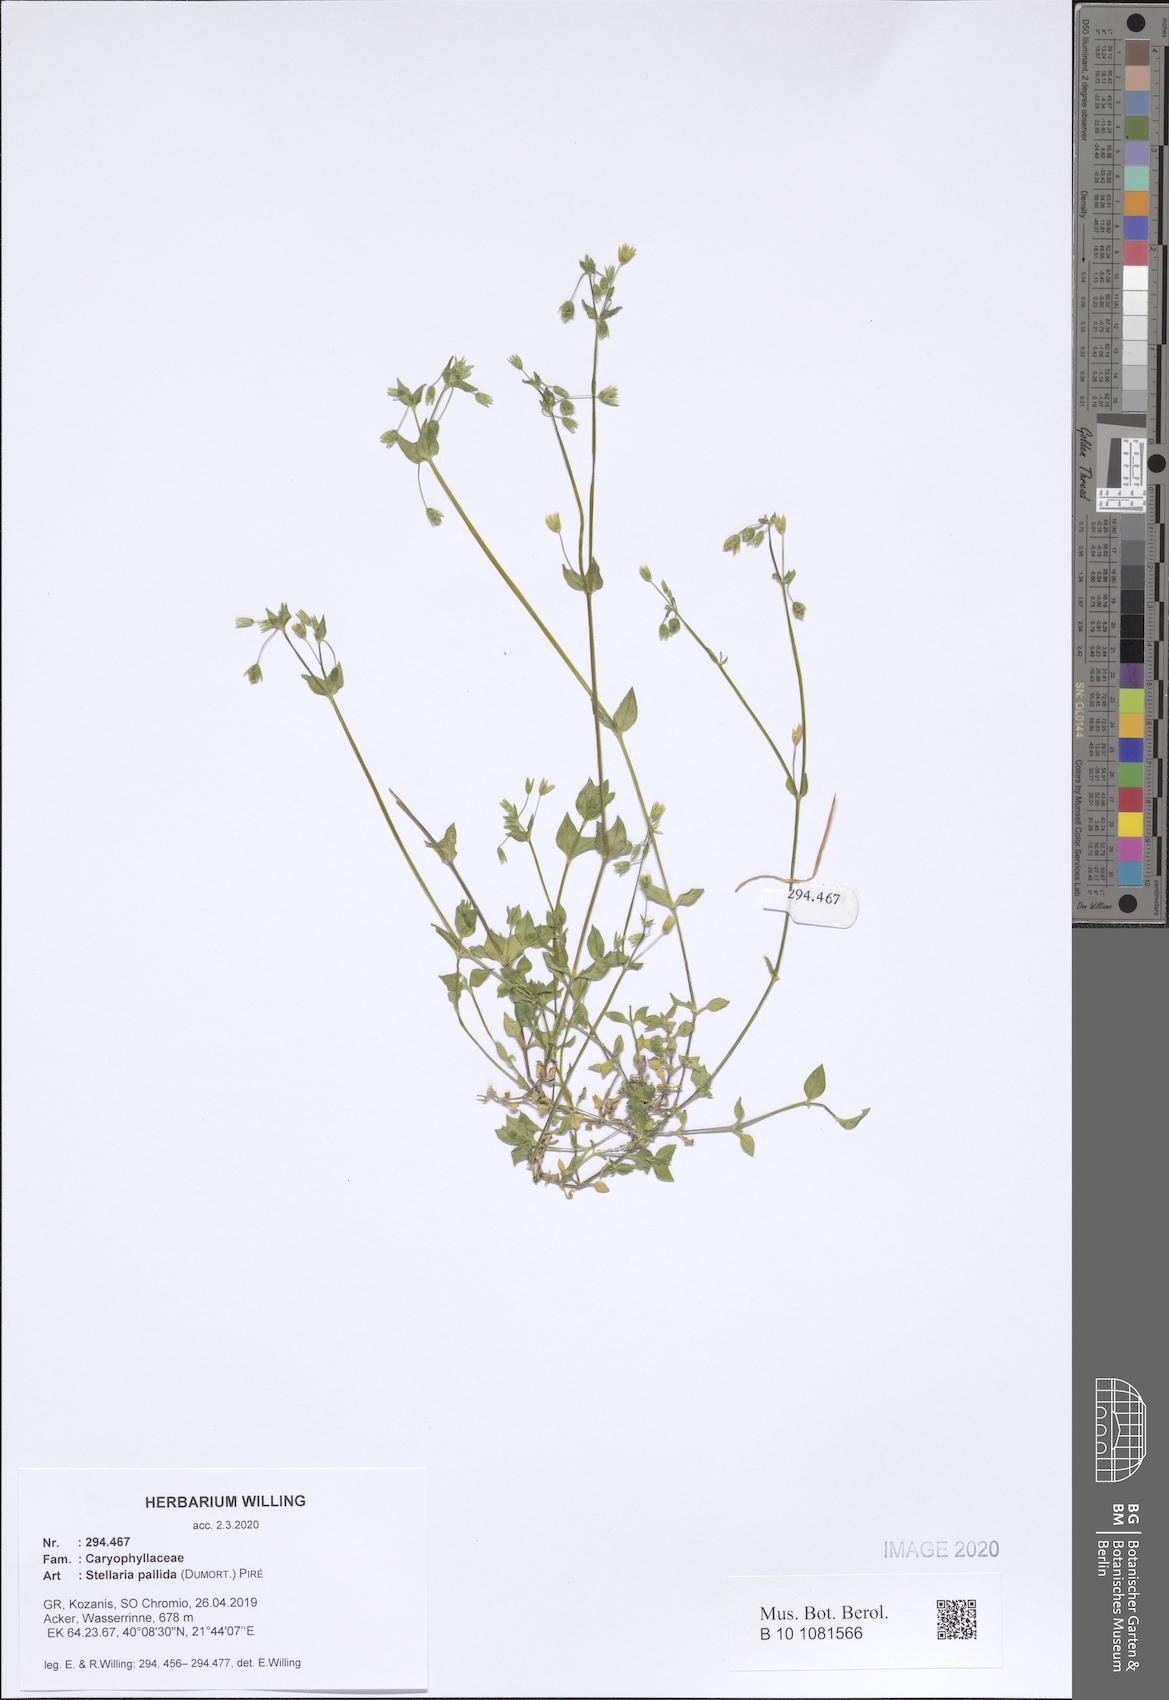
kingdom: Plantae
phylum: Tracheophyta
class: Magnoliopsida
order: Caryophyllales
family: Caryophyllaceae
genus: Stellaria
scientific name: Stellaria apetala
